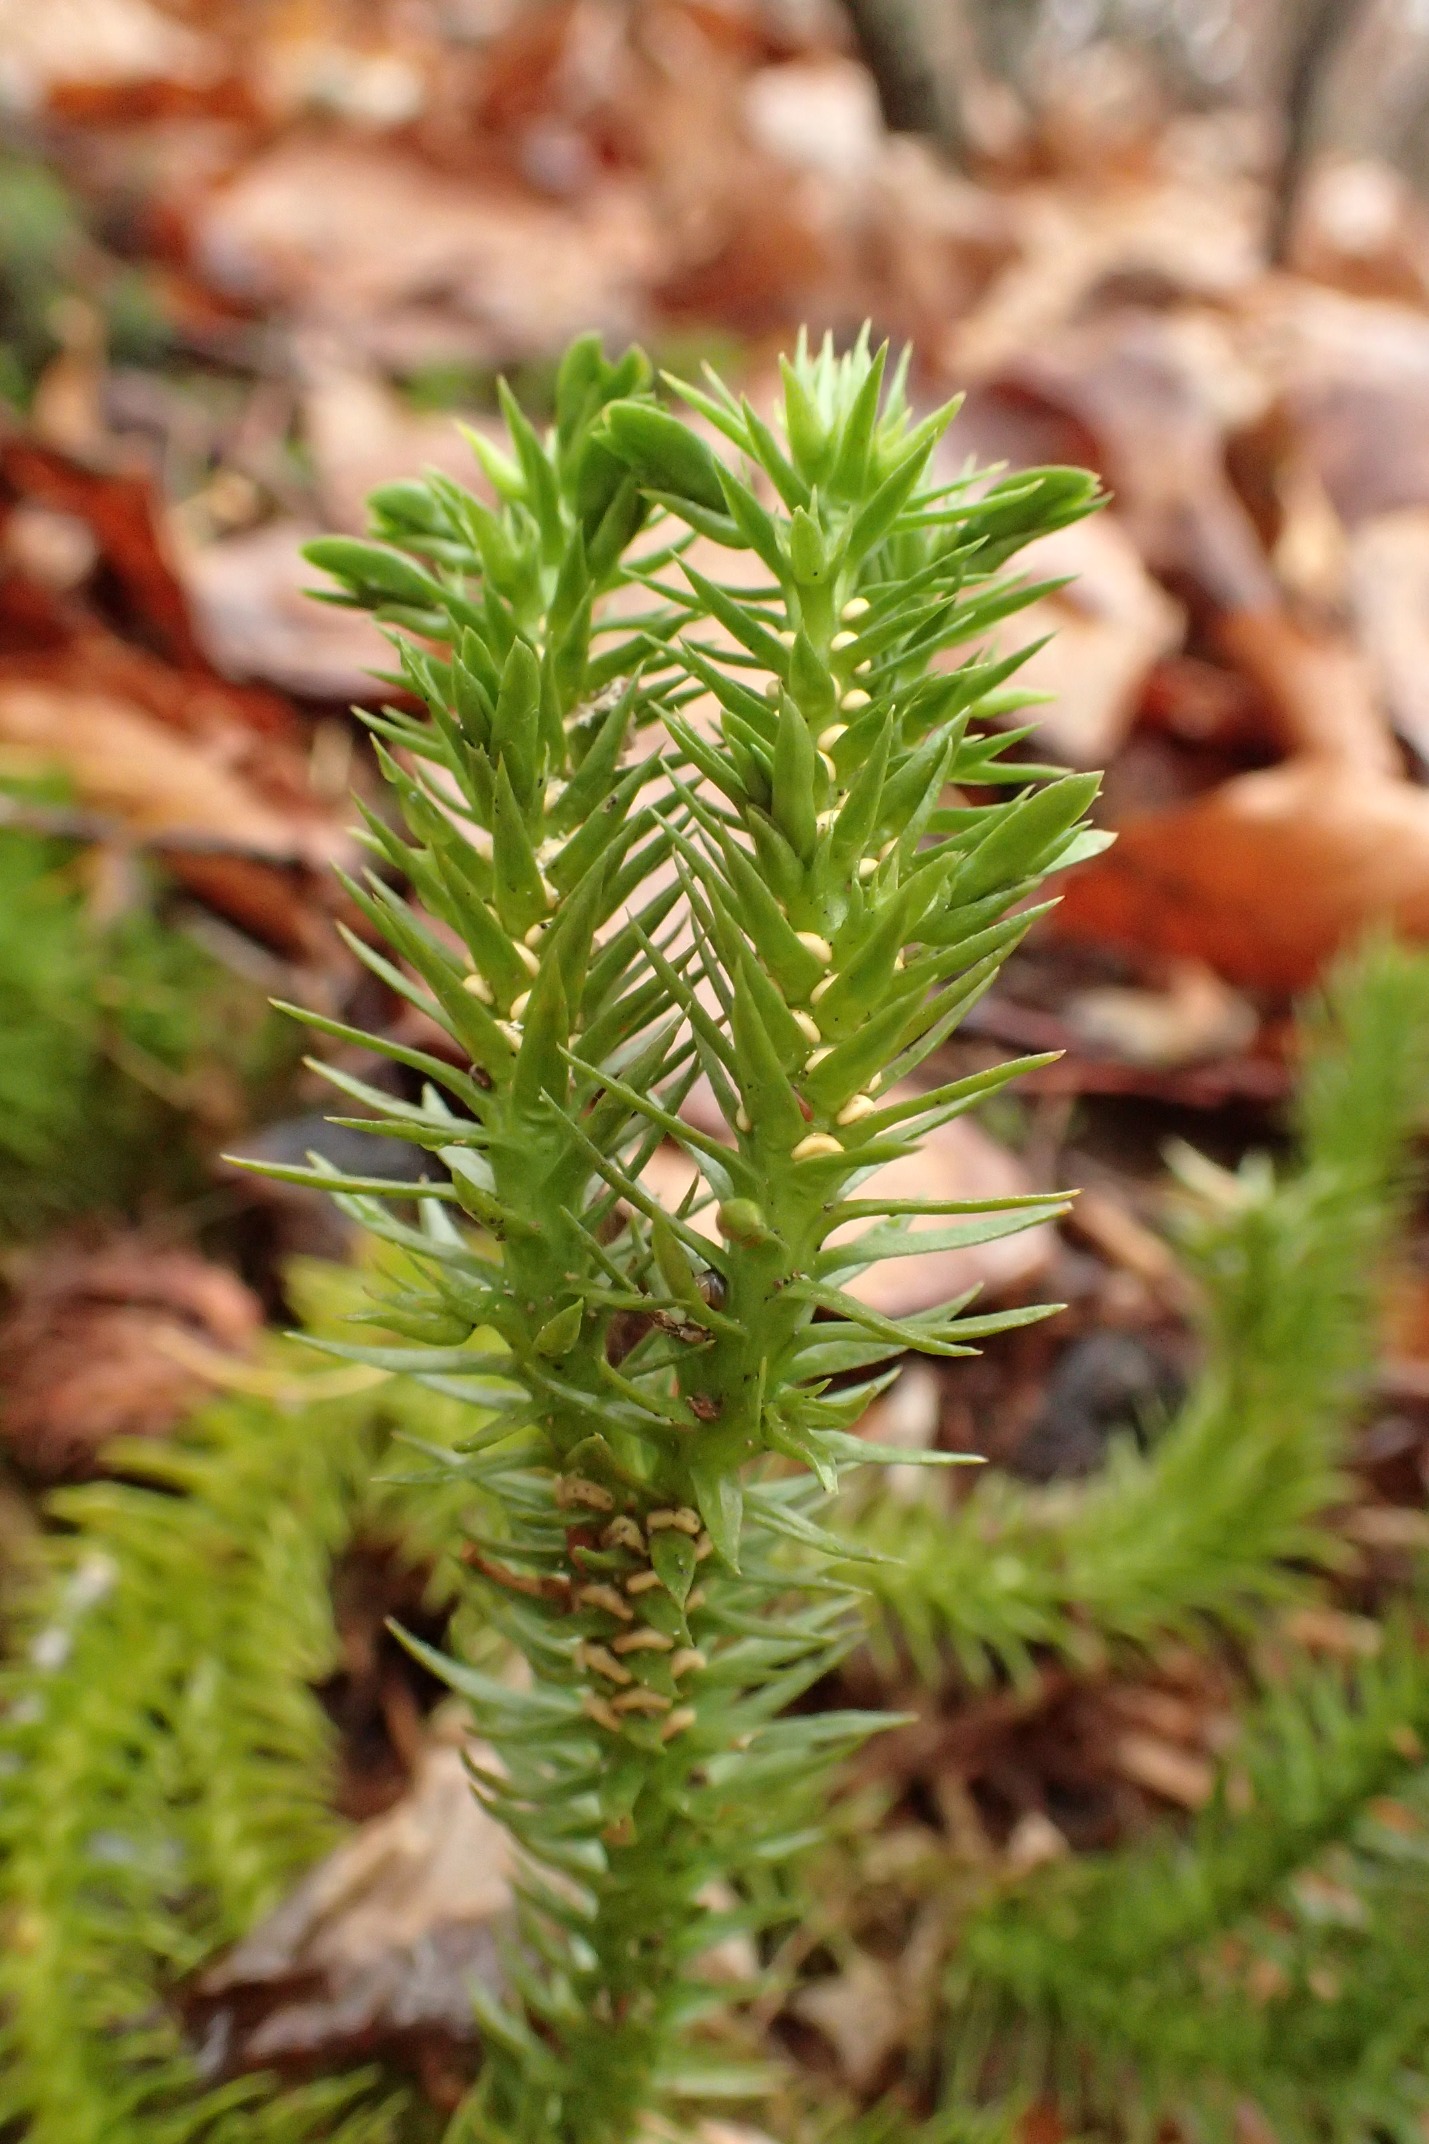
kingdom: Plantae
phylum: Tracheophyta
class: Lycopodiopsida
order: Lycopodiales
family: Lycopodiaceae
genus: Huperzia
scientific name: Huperzia selago
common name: Otteradet ulvefod
